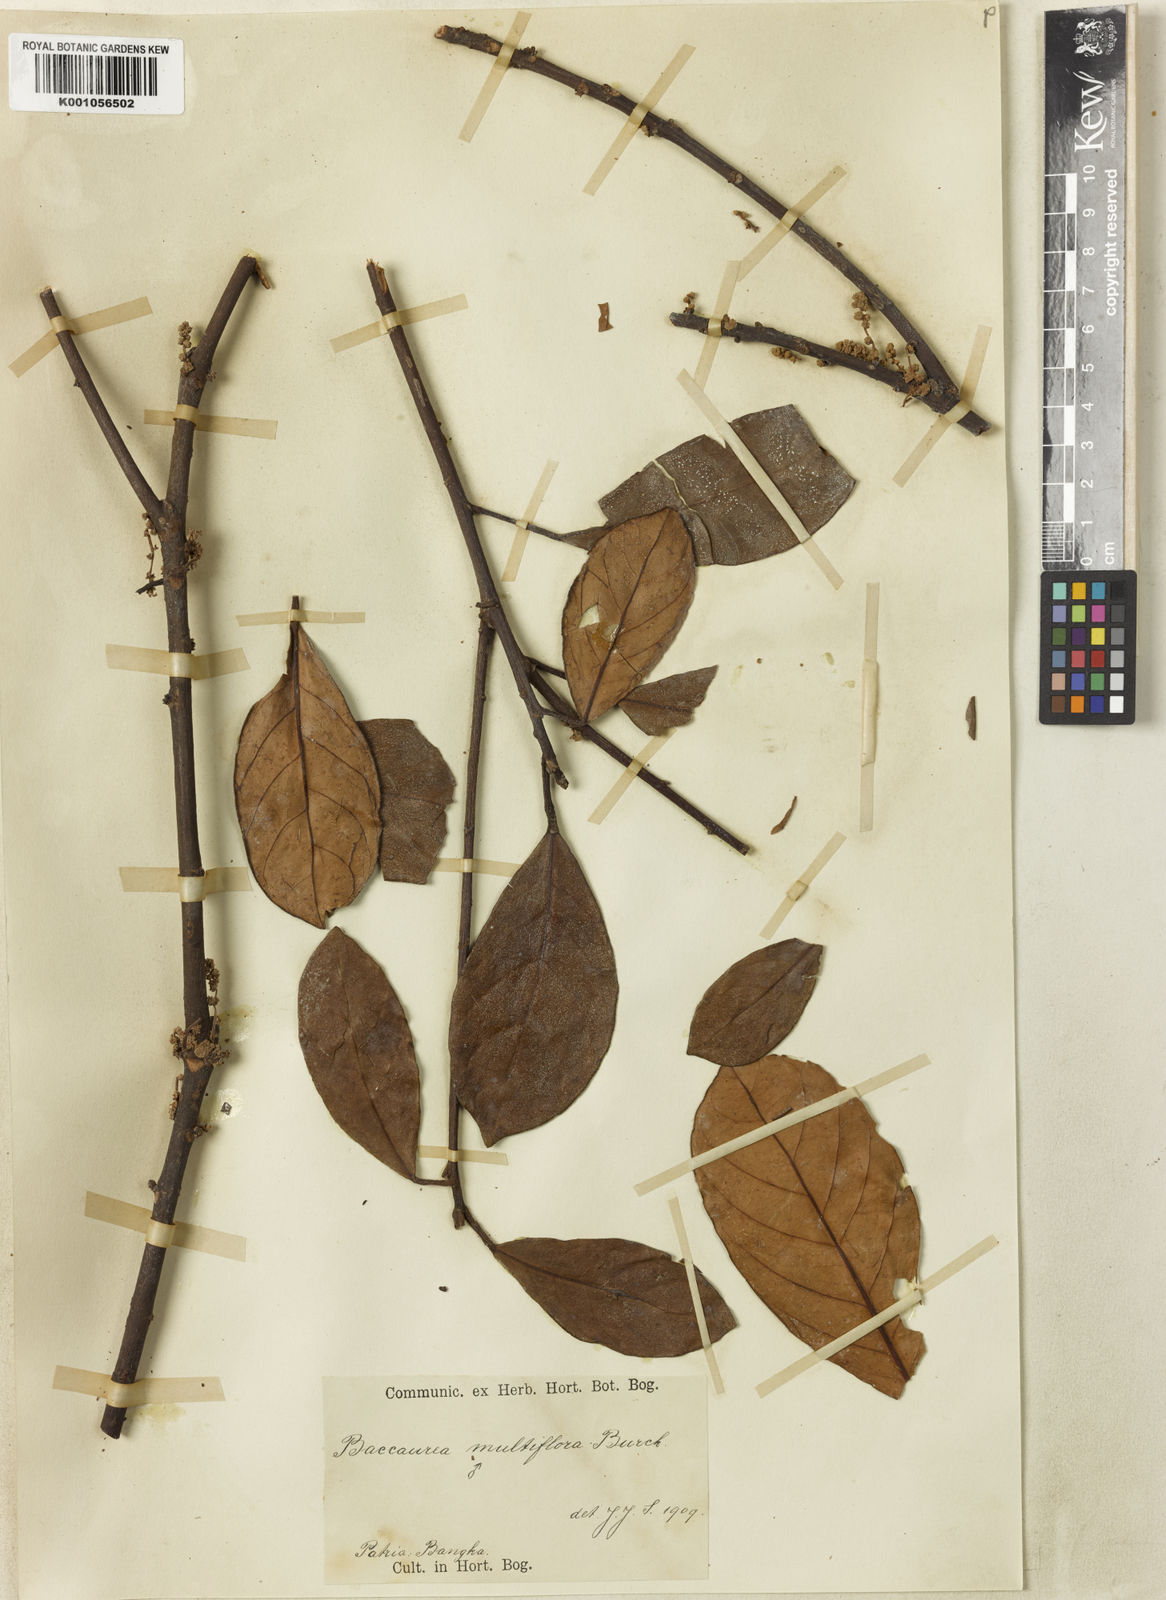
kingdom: Plantae
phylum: Tracheophyta
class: Magnoliopsida
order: Malpighiales
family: Phyllanthaceae
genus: Baccaurea
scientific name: Baccaurea multiflora
